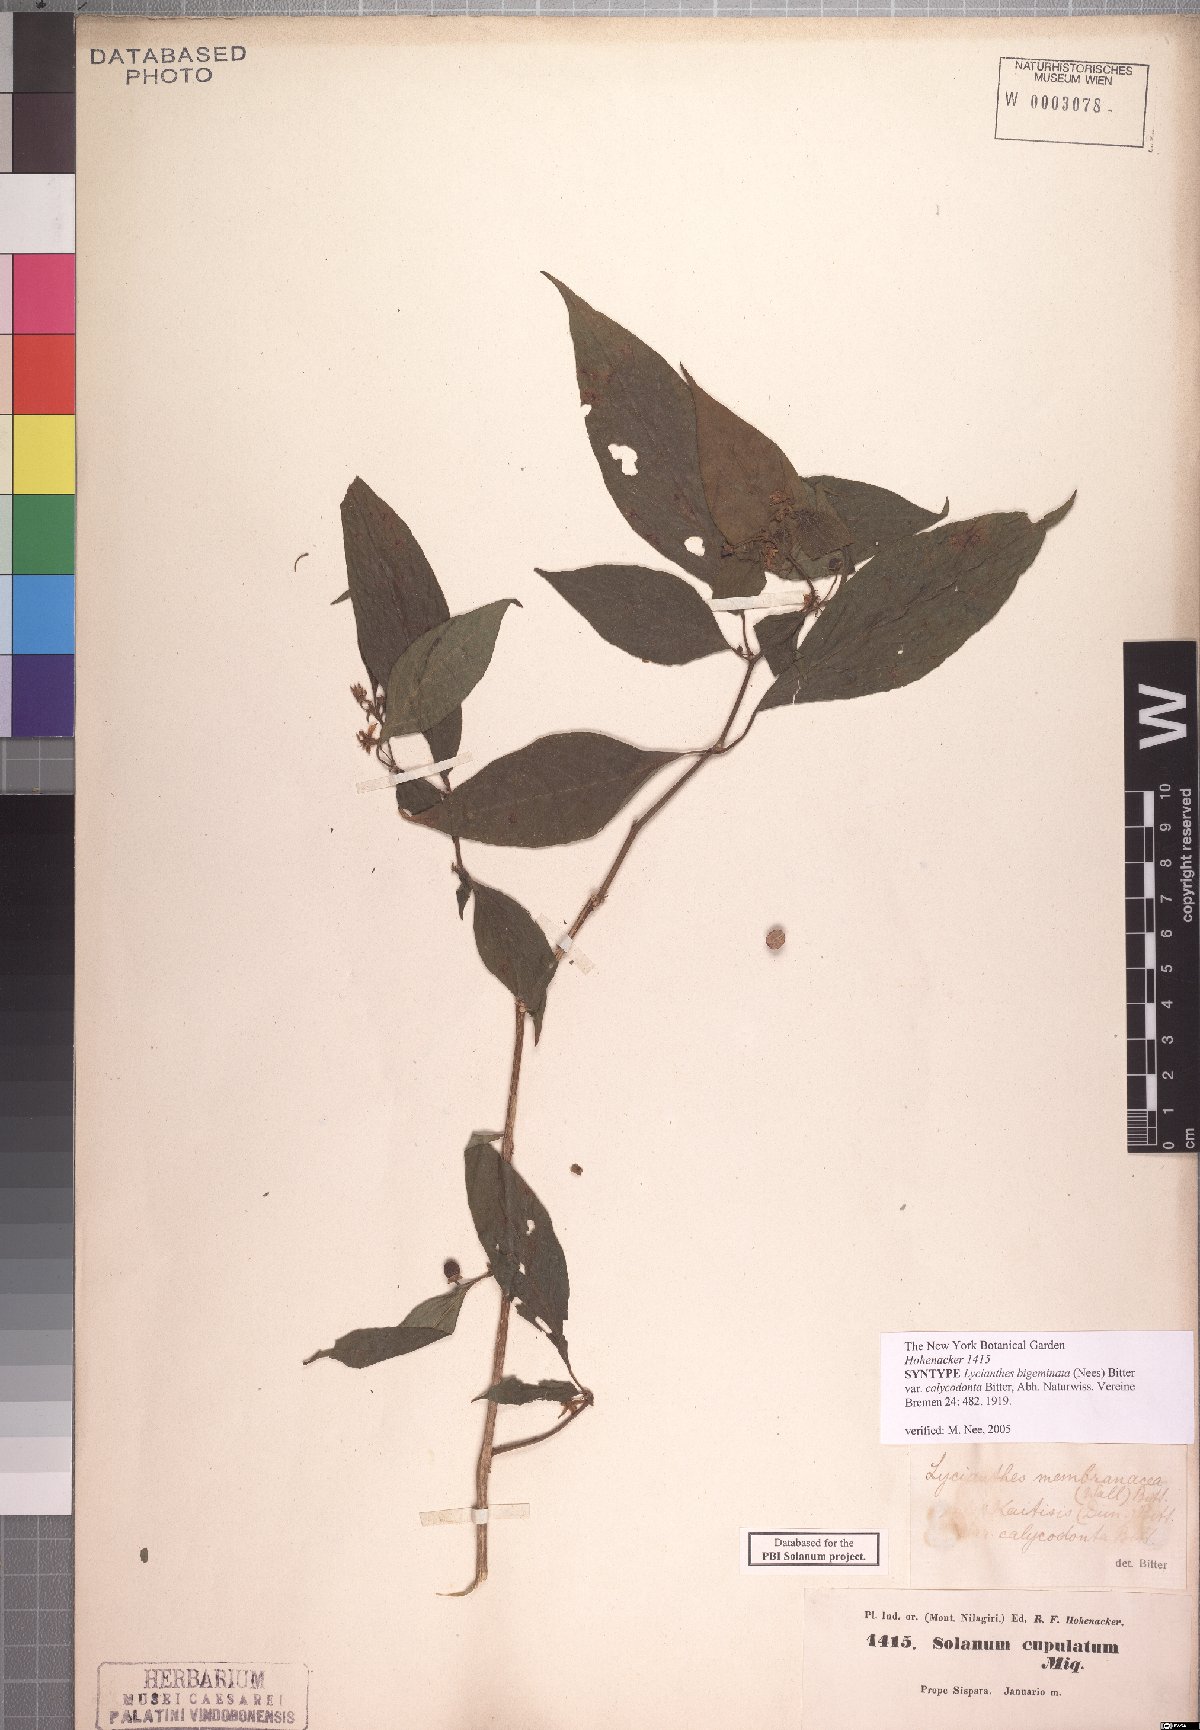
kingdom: Plantae
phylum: Tracheophyta
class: Magnoliopsida
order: Solanales
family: Solanaceae
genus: Lycianthes
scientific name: Lycianthes laevis
